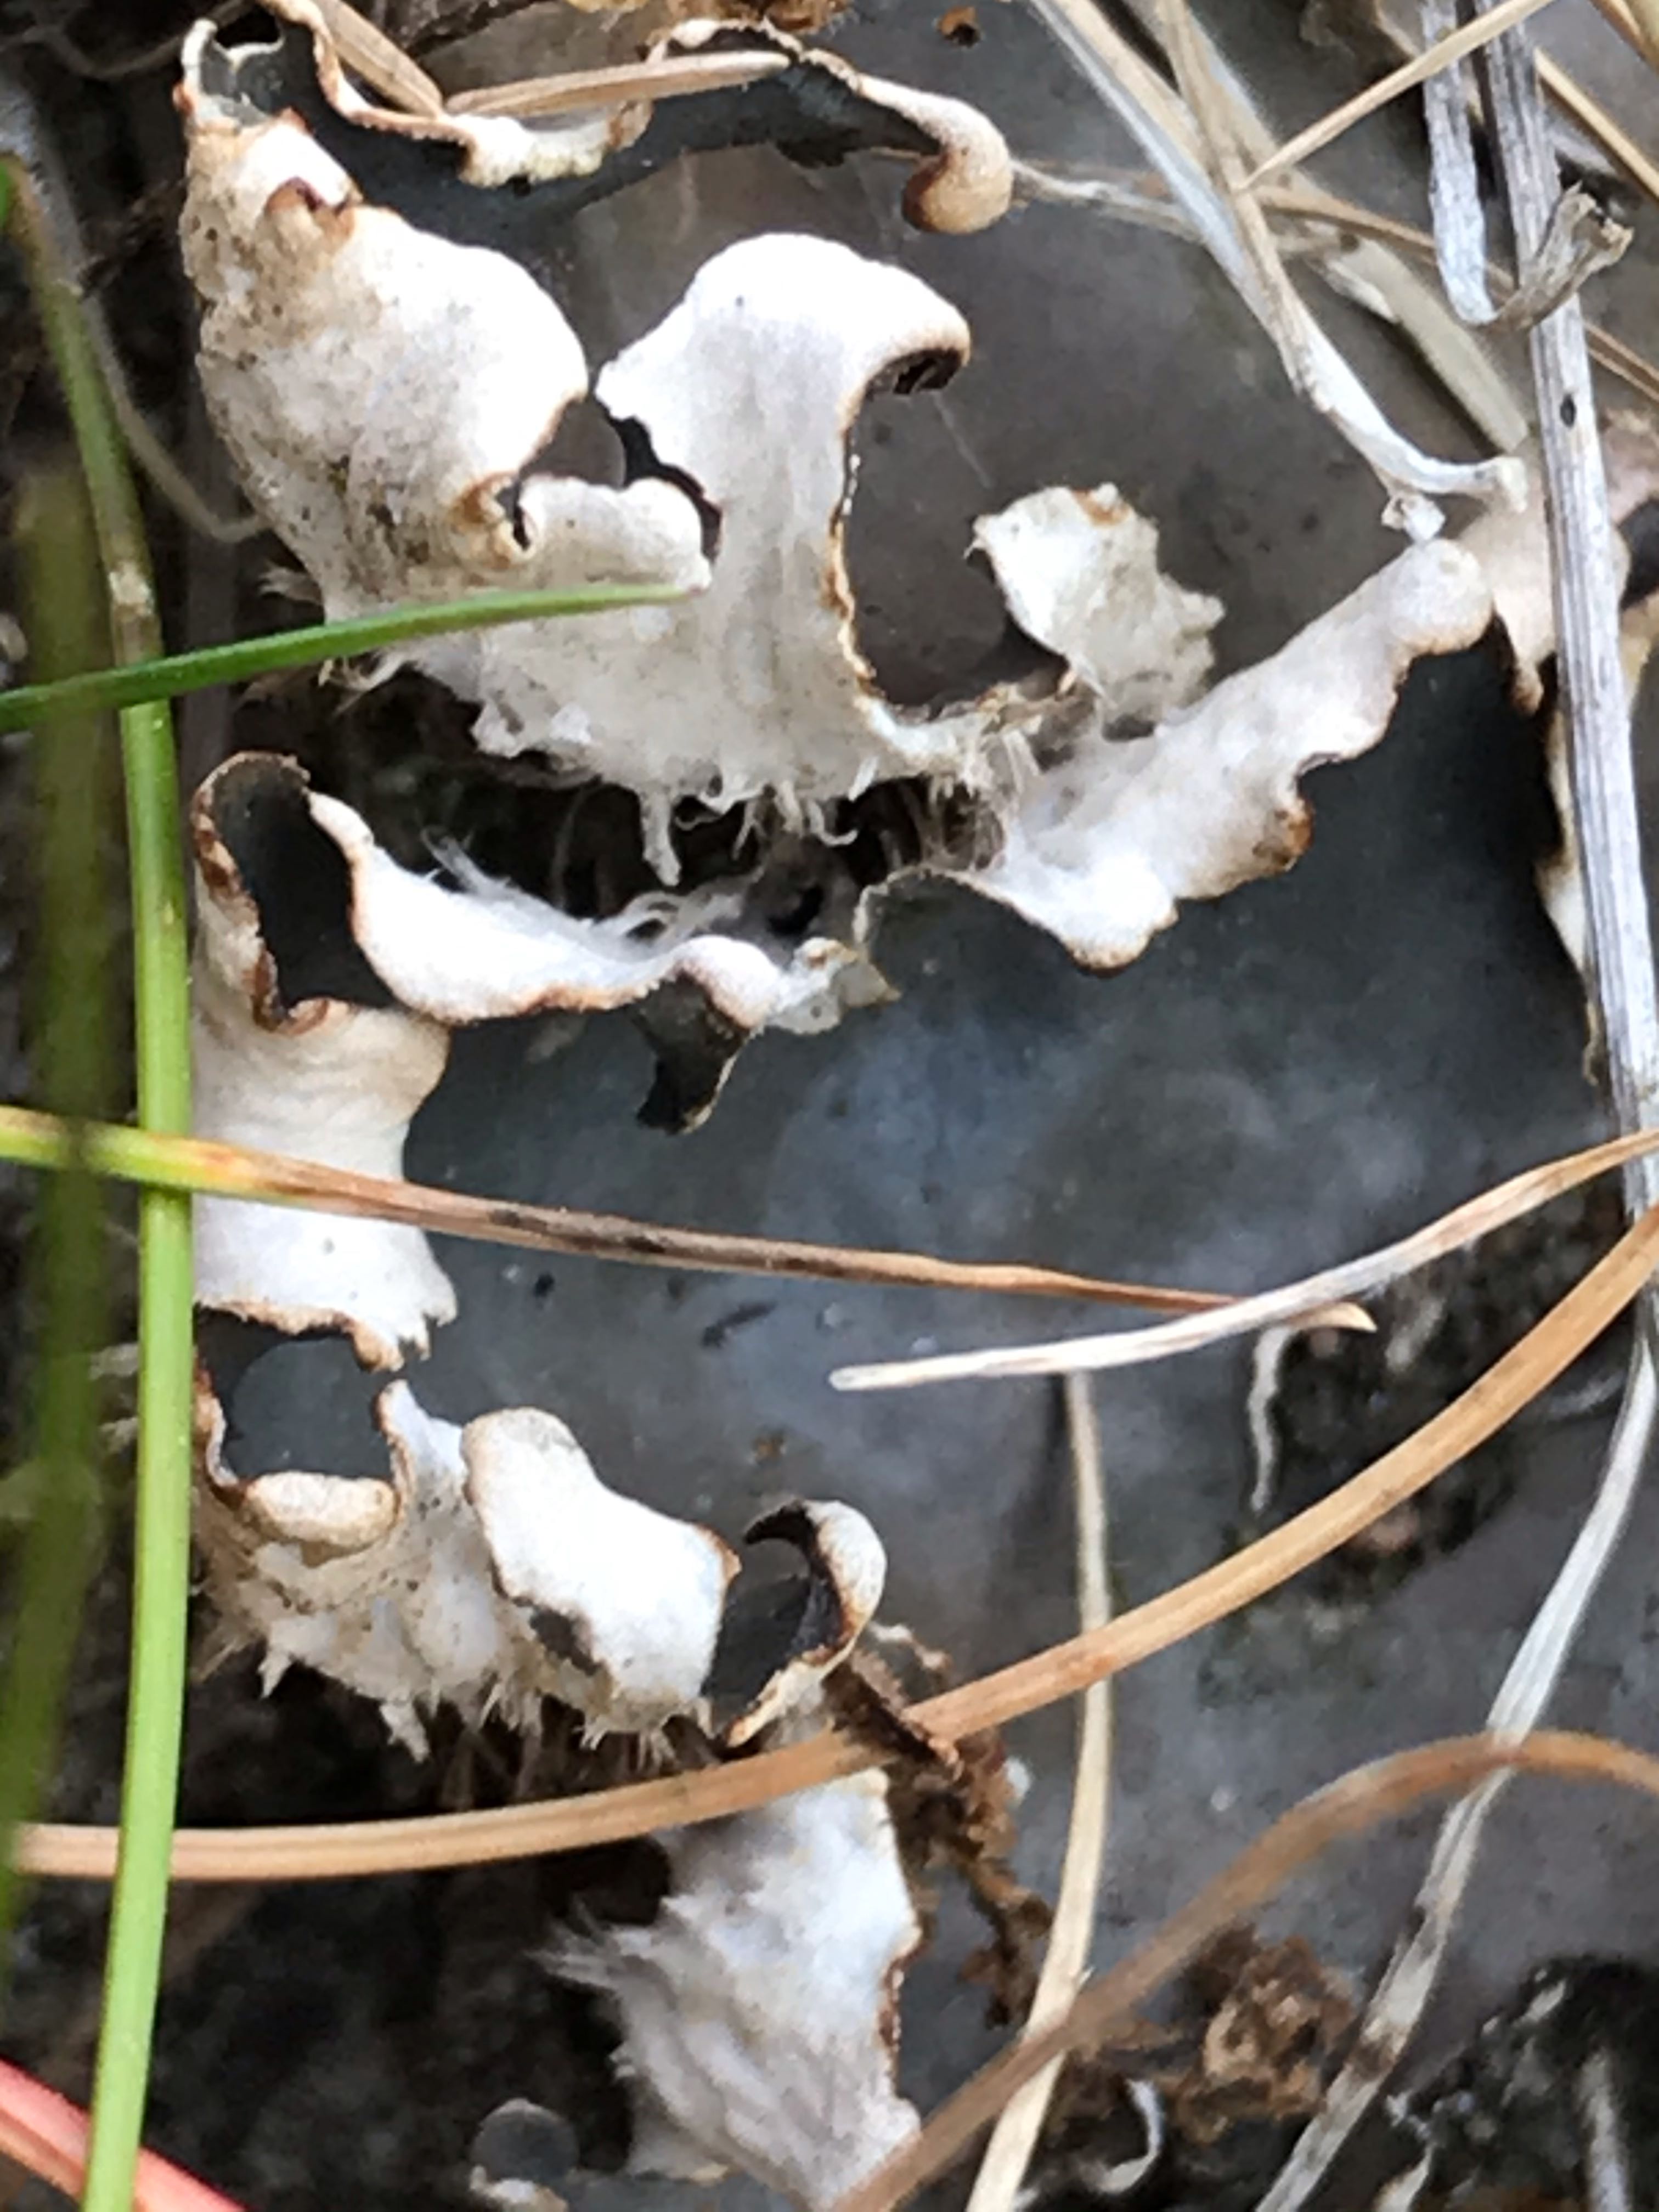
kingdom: Fungi
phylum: Ascomycota
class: Lecanoromycetes
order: Peltigerales
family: Peltigeraceae
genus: Peltigera
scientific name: Peltigera
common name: skjoldlav
